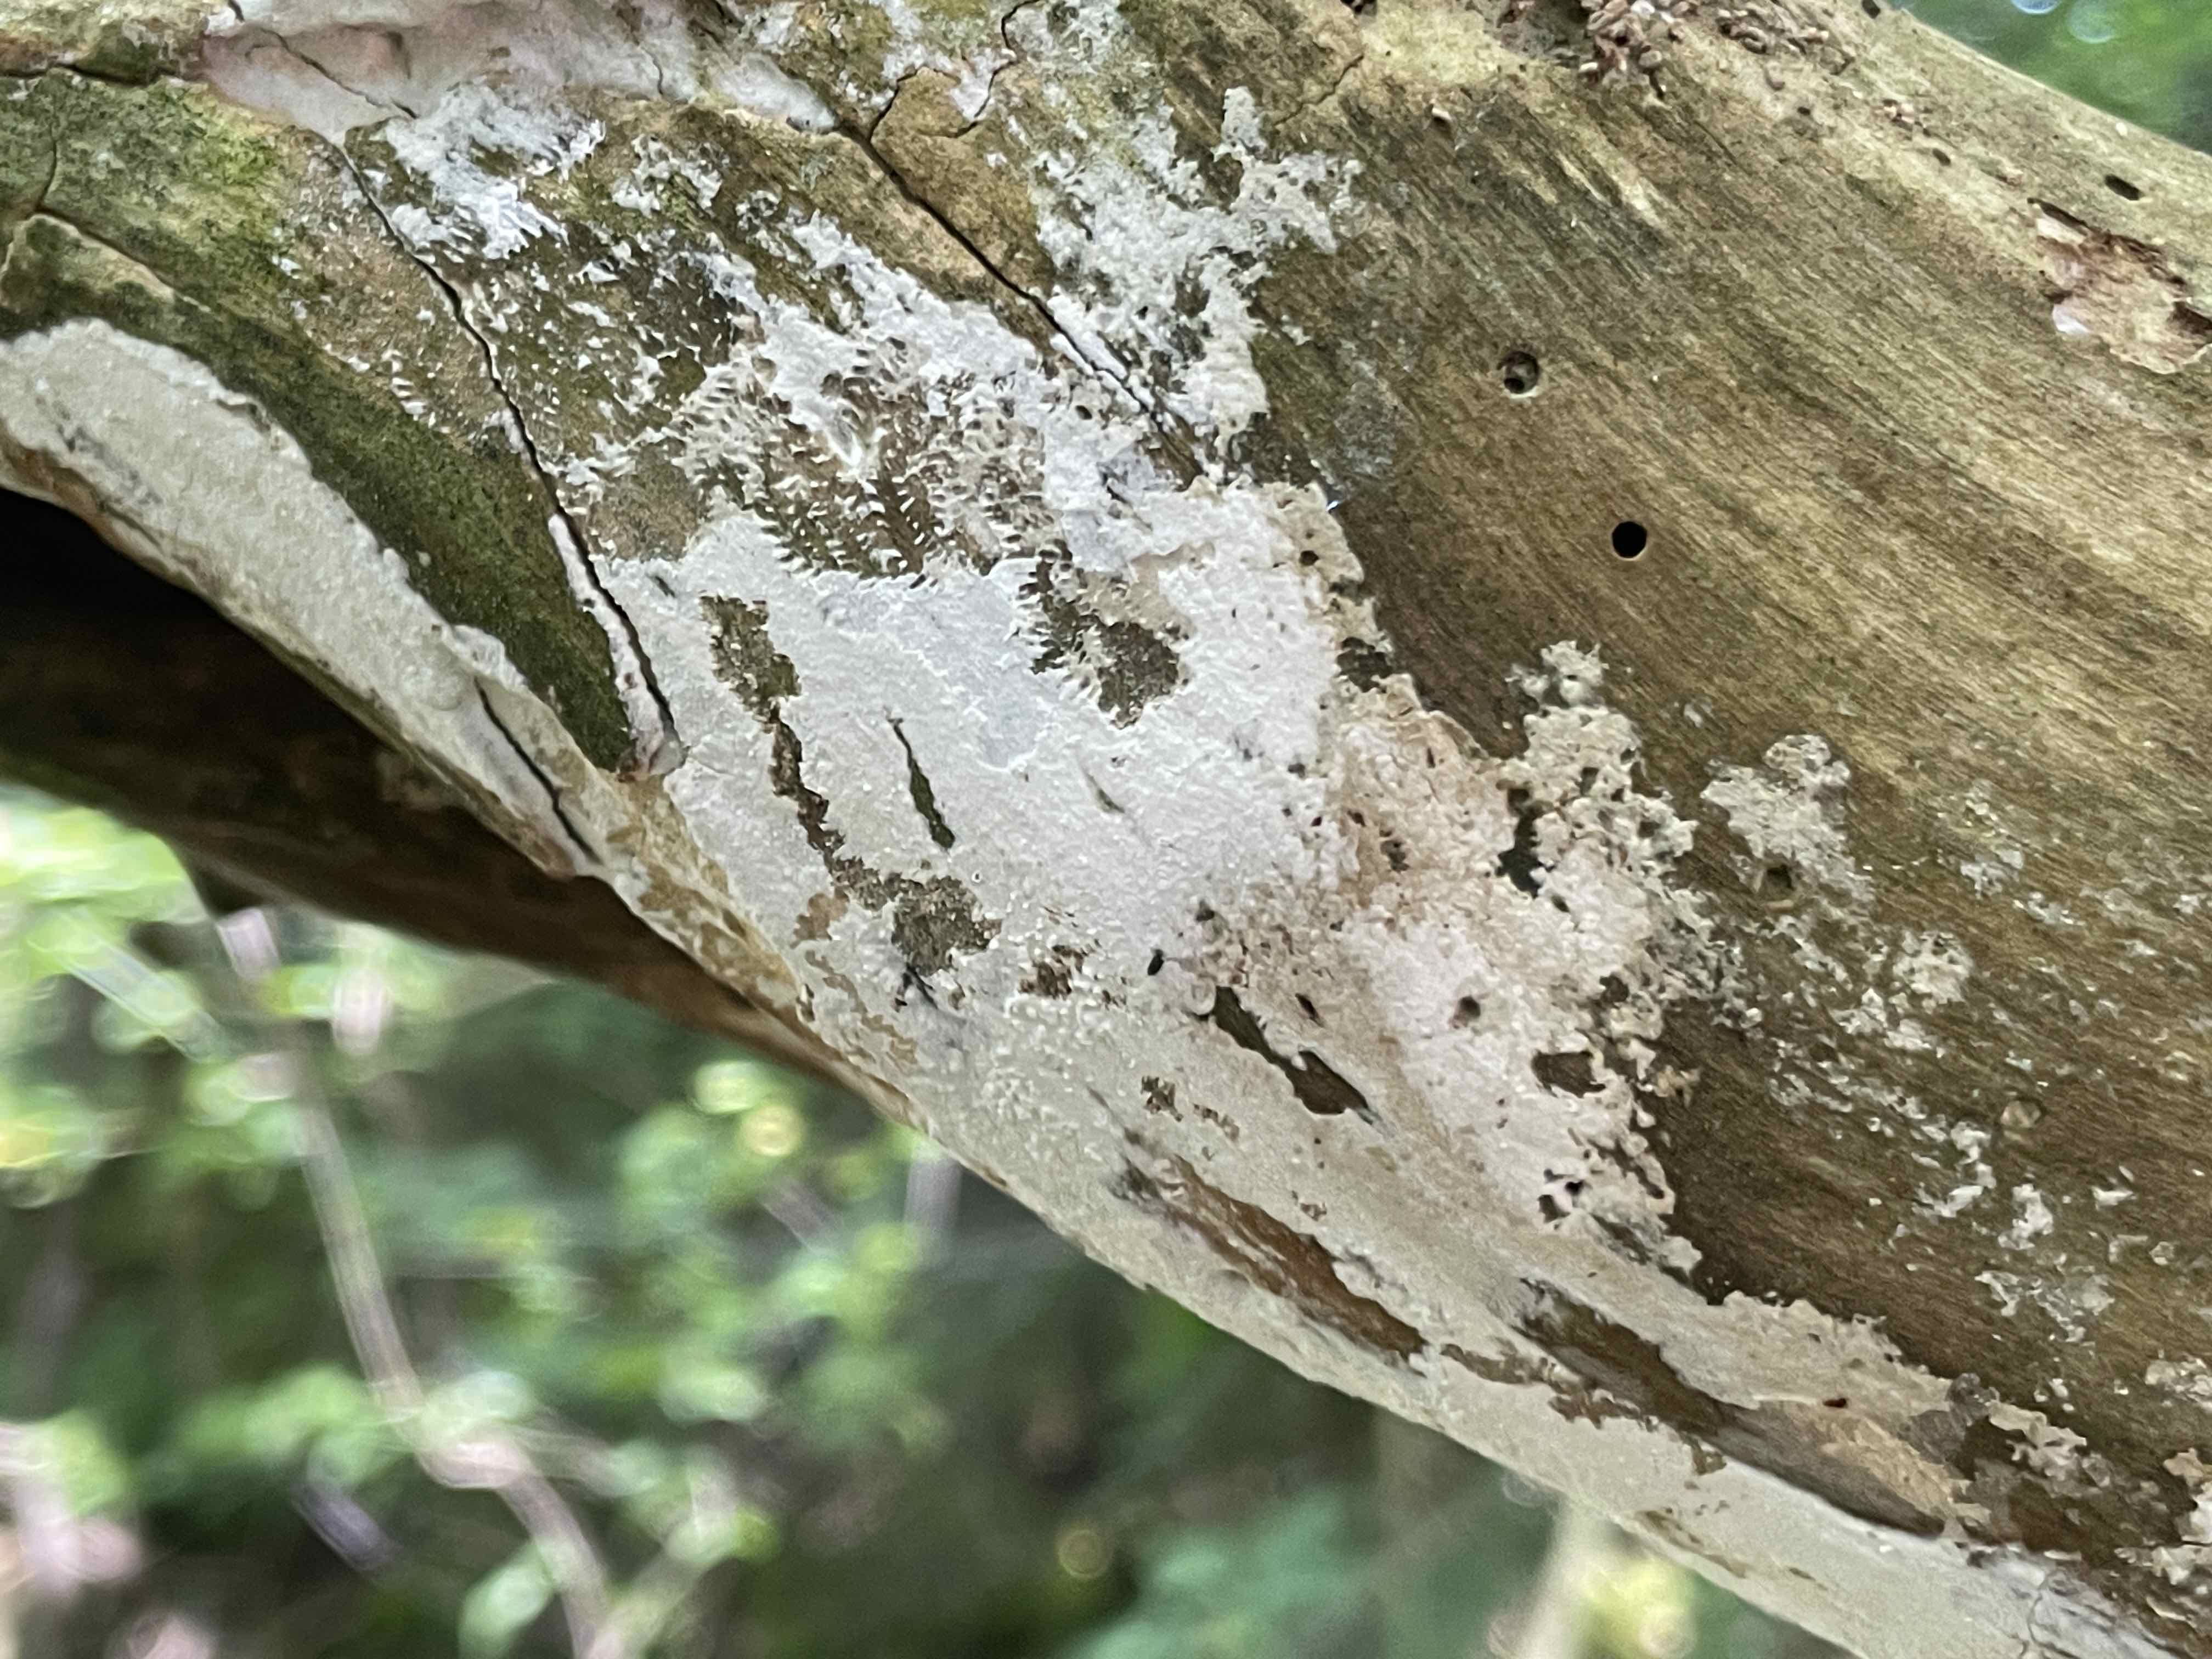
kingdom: Fungi
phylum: Basidiomycota
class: Agaricomycetes
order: Corticiales
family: Corticiaceae
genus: Lyomyces
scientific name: Lyomyces sambuci
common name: almindelig hyldehinde
